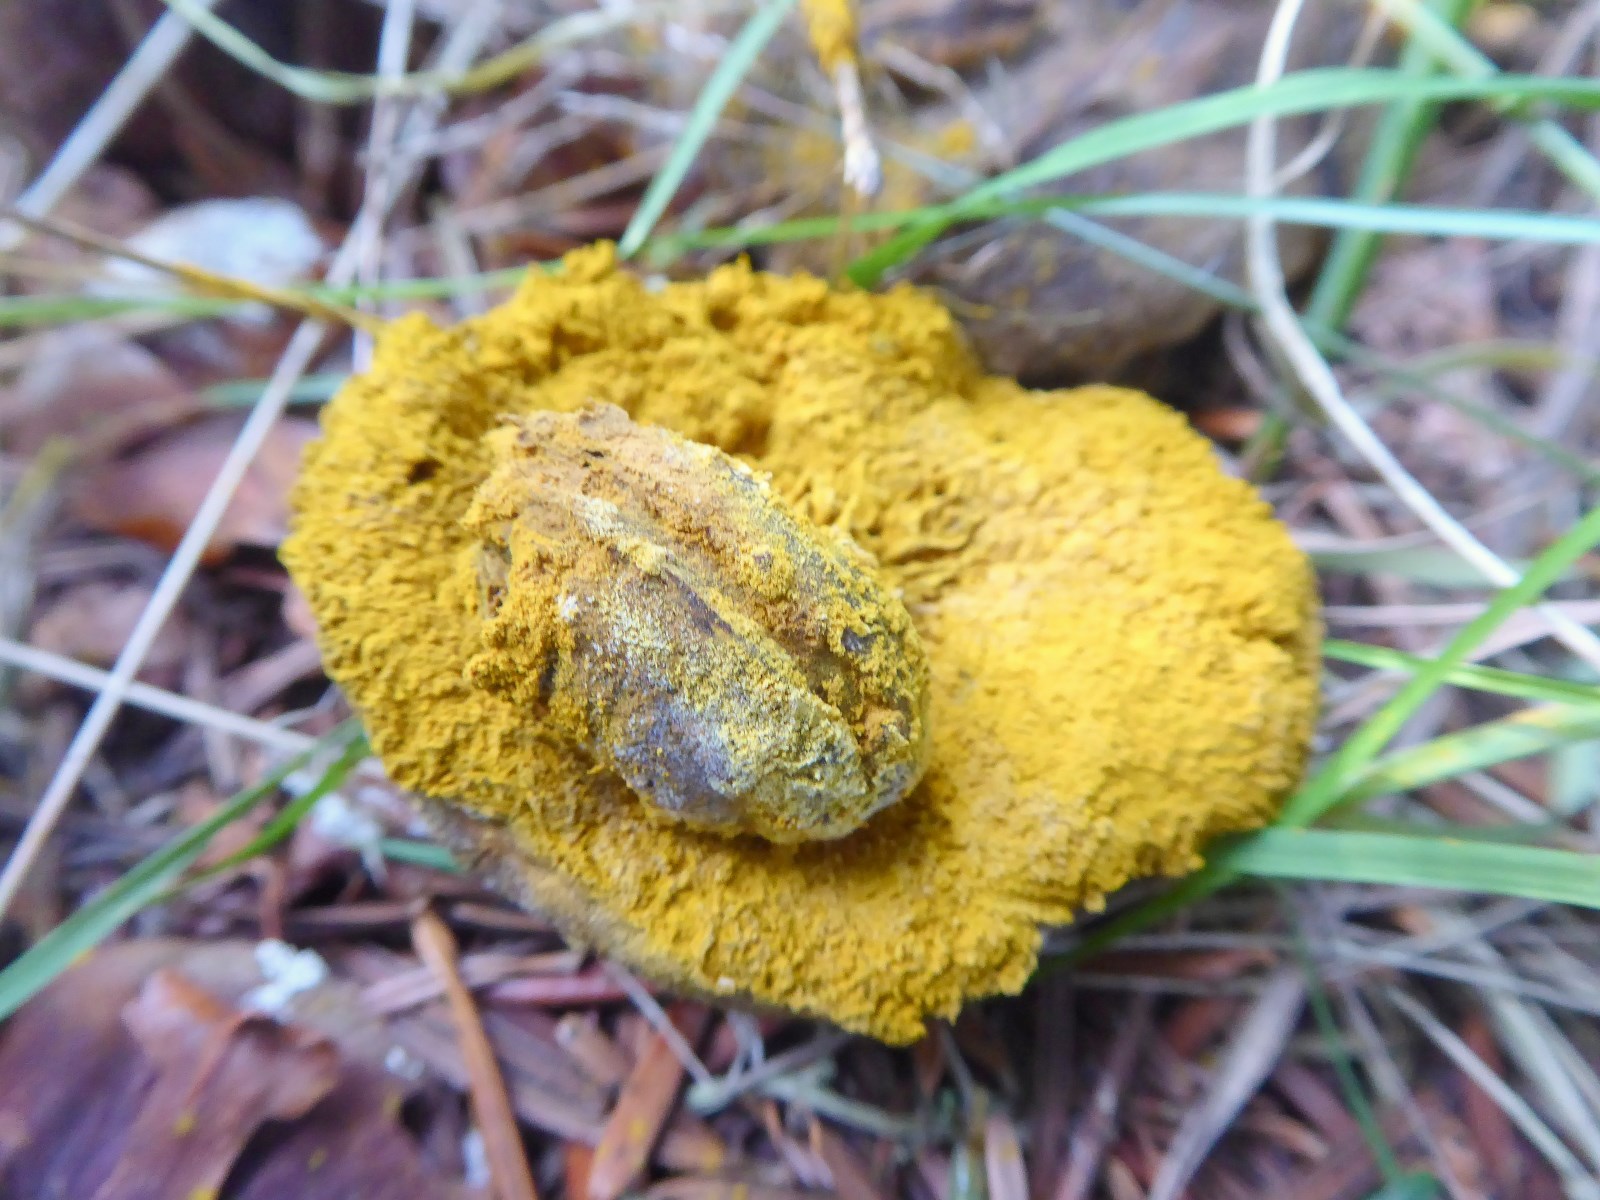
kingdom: Fungi
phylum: Ascomycota
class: Sordariomycetes
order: Hypocreales
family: Hypocreaceae
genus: Hypomyces
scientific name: Hypomyces
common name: snylteskorpe
